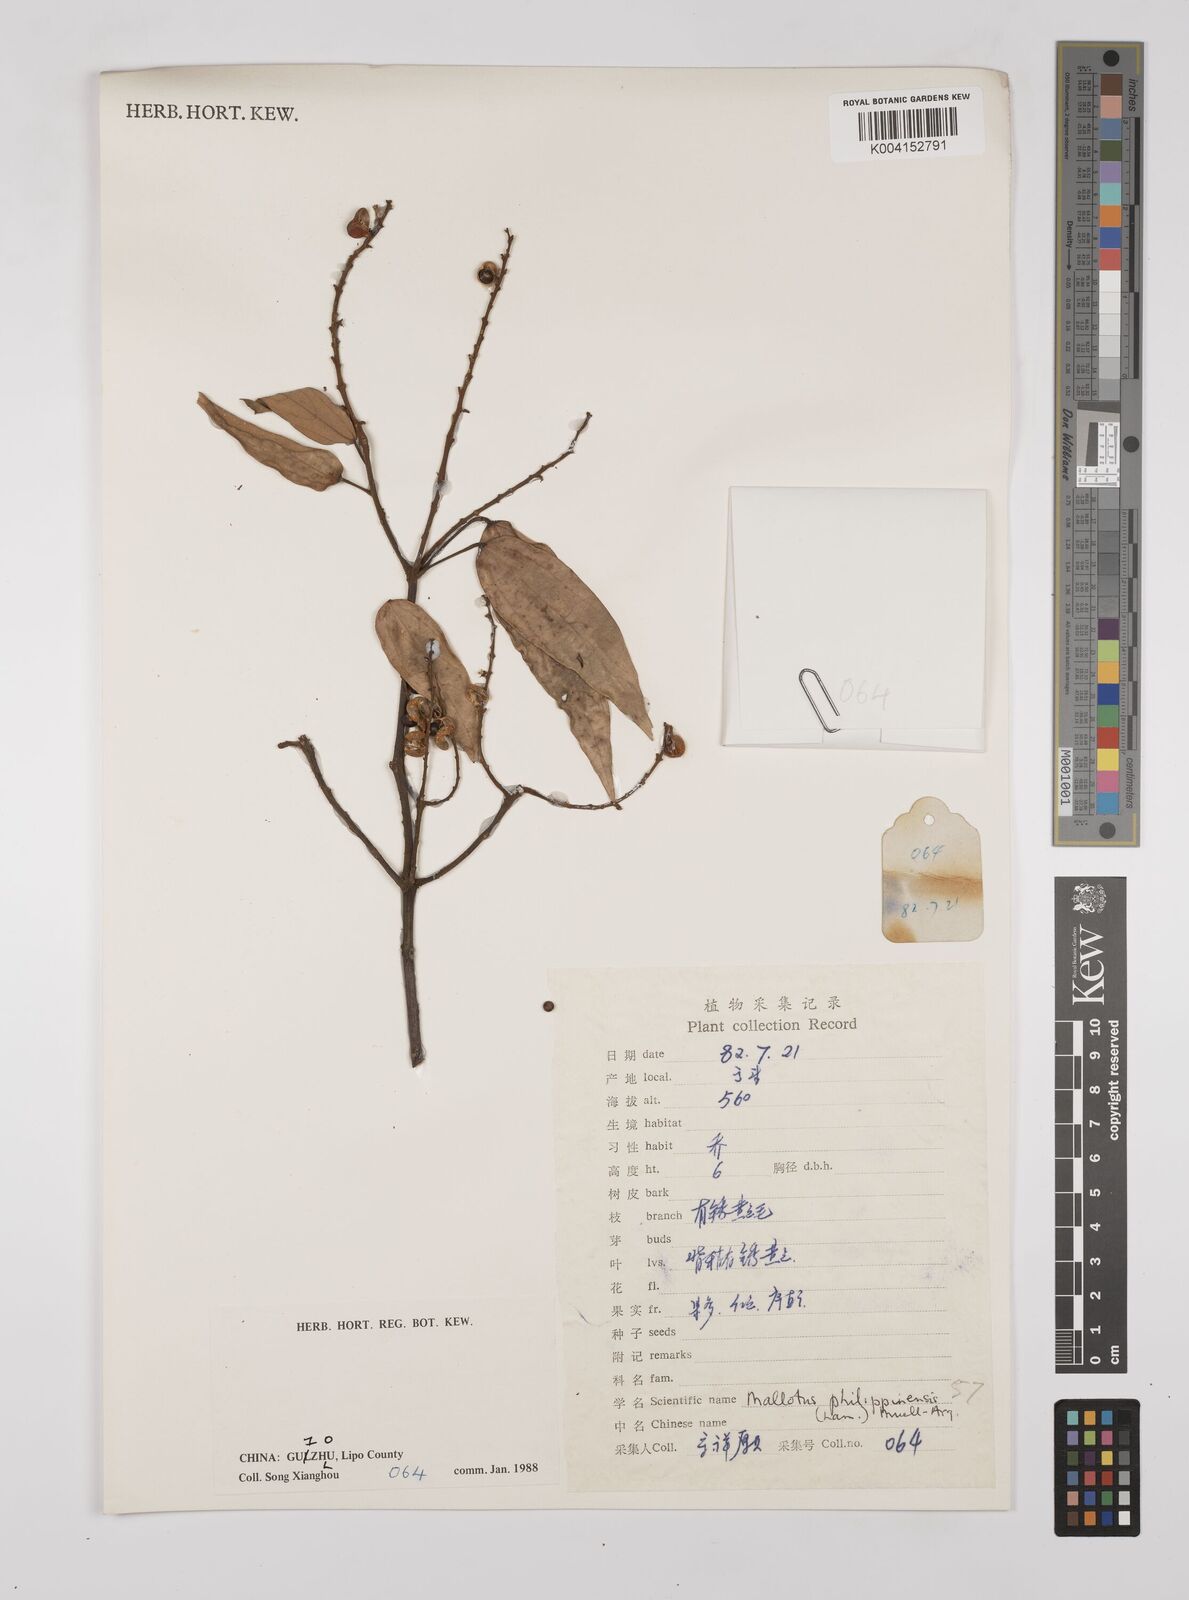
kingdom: Plantae
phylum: Tracheophyta
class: Magnoliopsida
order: Malpighiales
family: Euphorbiaceae
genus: Mallotus
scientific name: Mallotus philippensis
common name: Kamala tree
